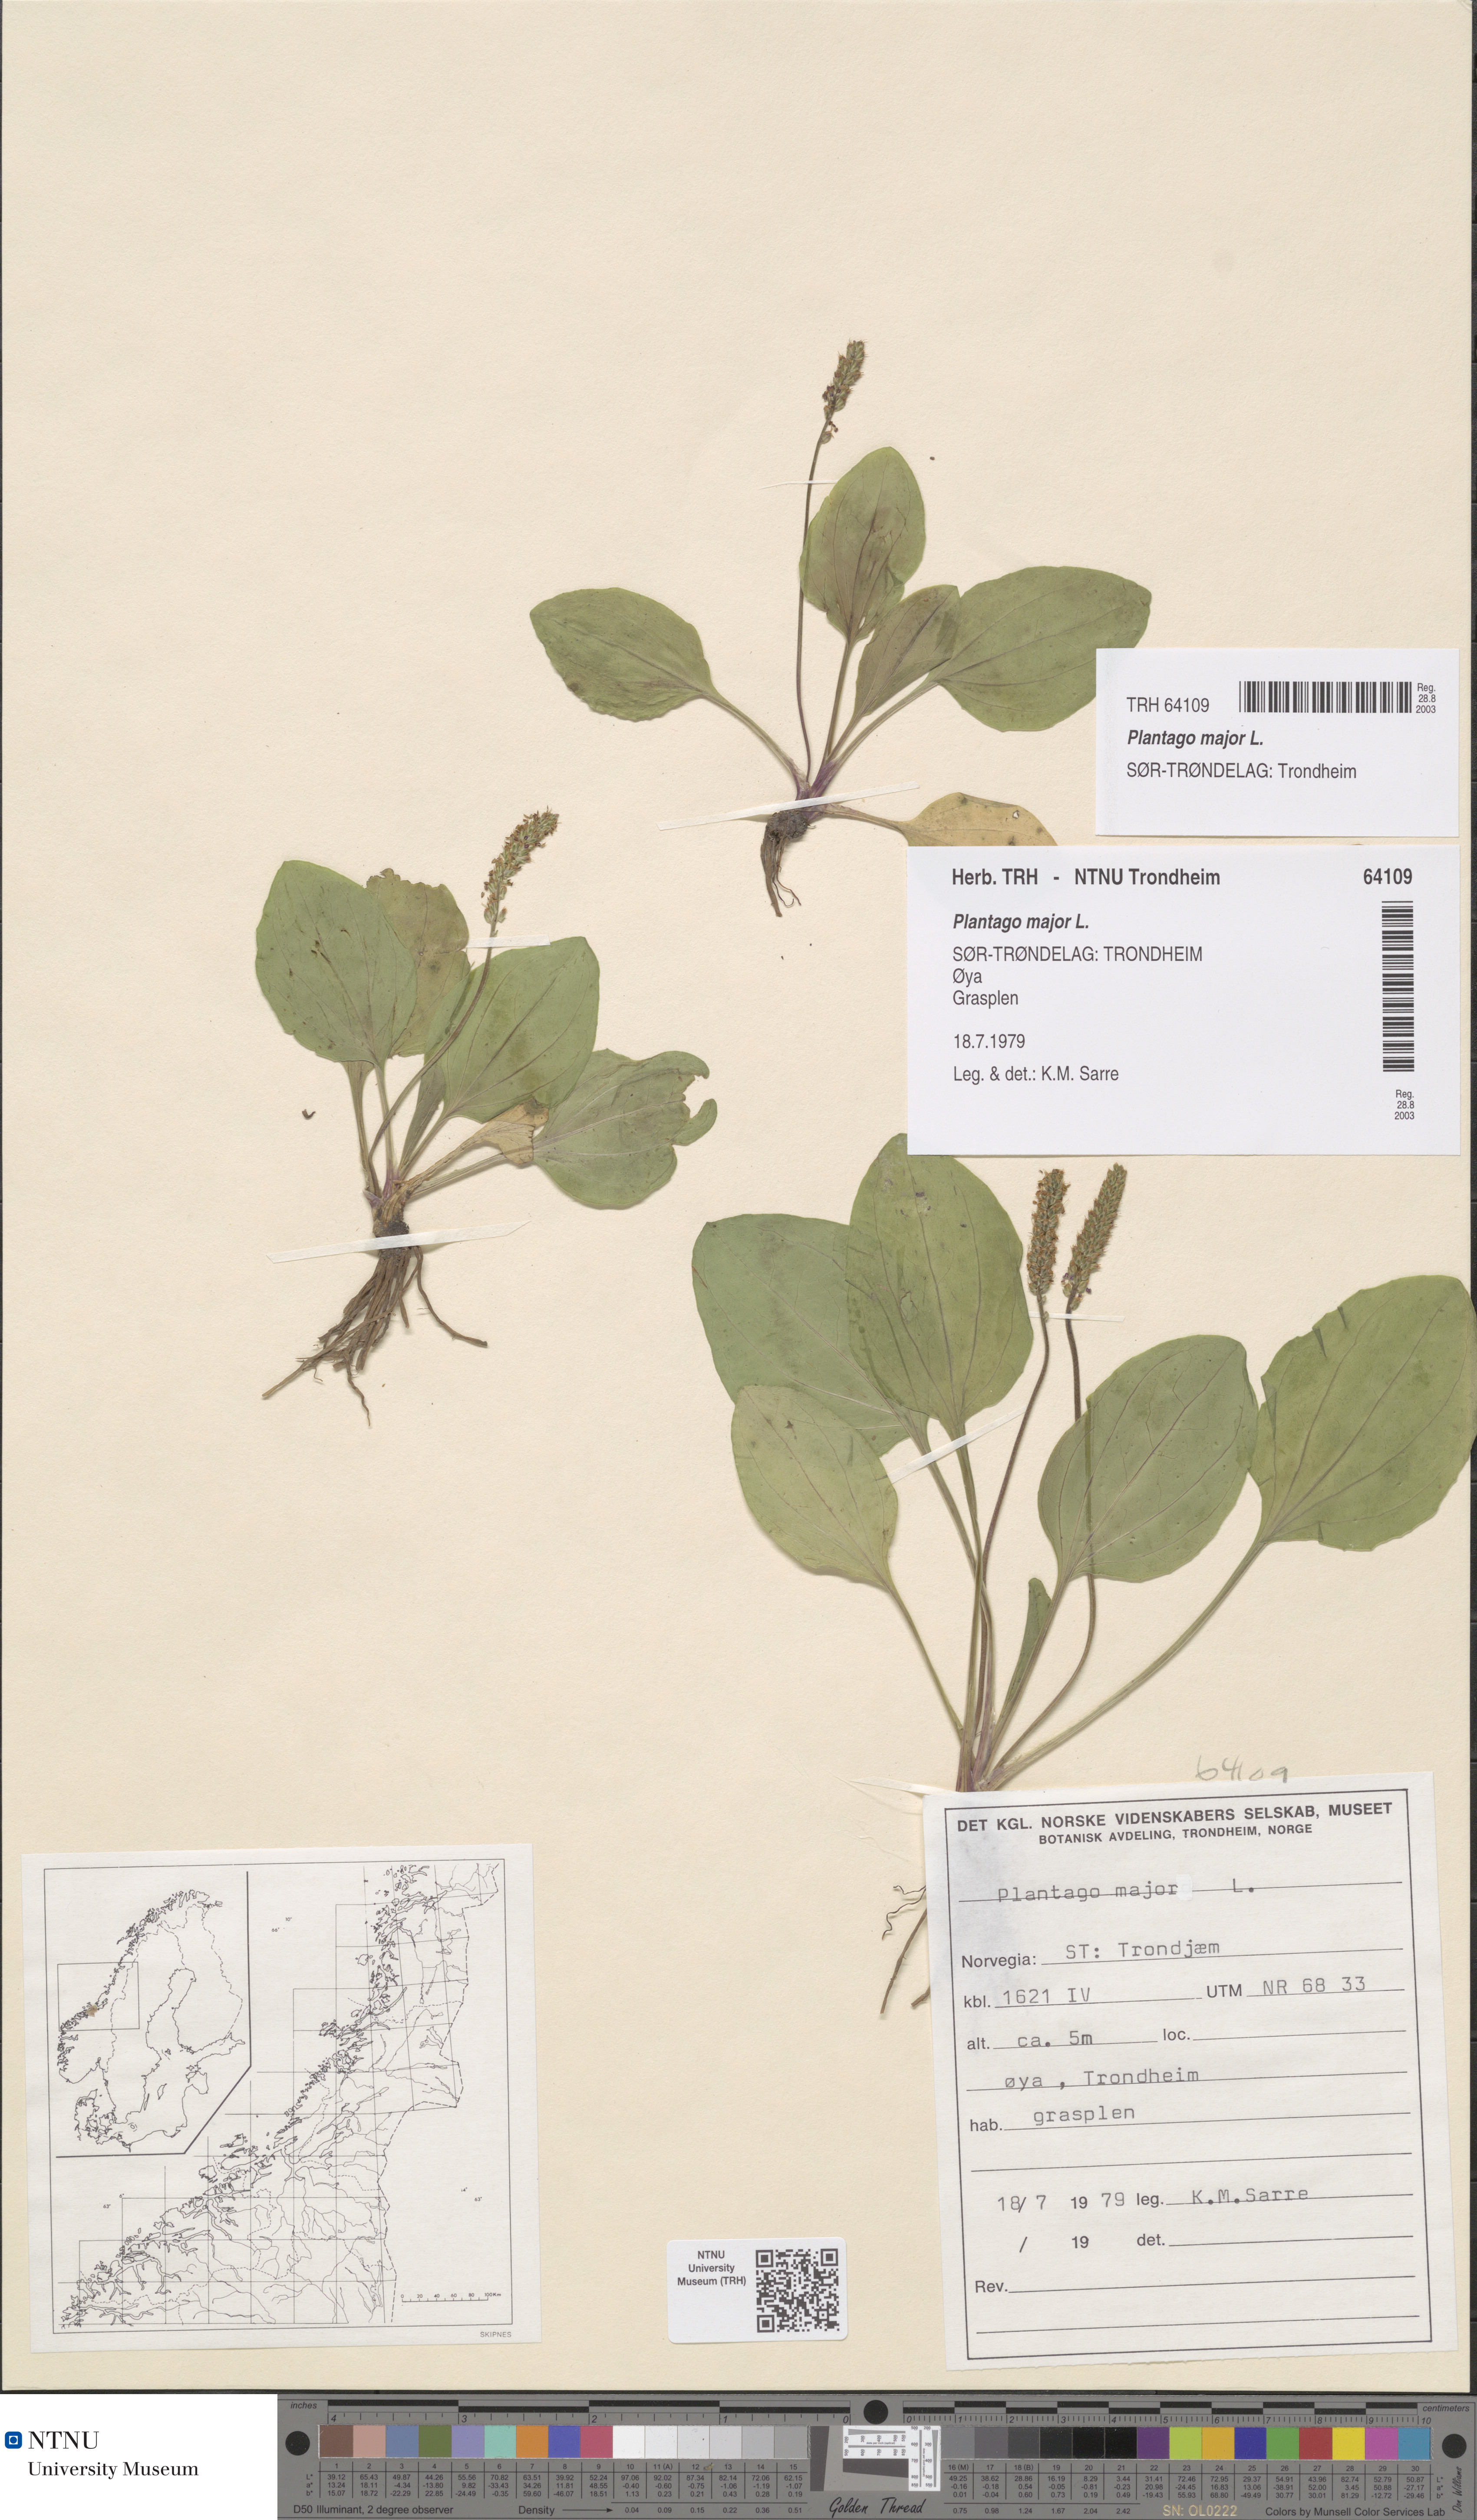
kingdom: Plantae
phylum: Tracheophyta
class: Magnoliopsida
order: Lamiales
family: Plantaginaceae
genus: Plantago
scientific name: Plantago major
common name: Common plantain
